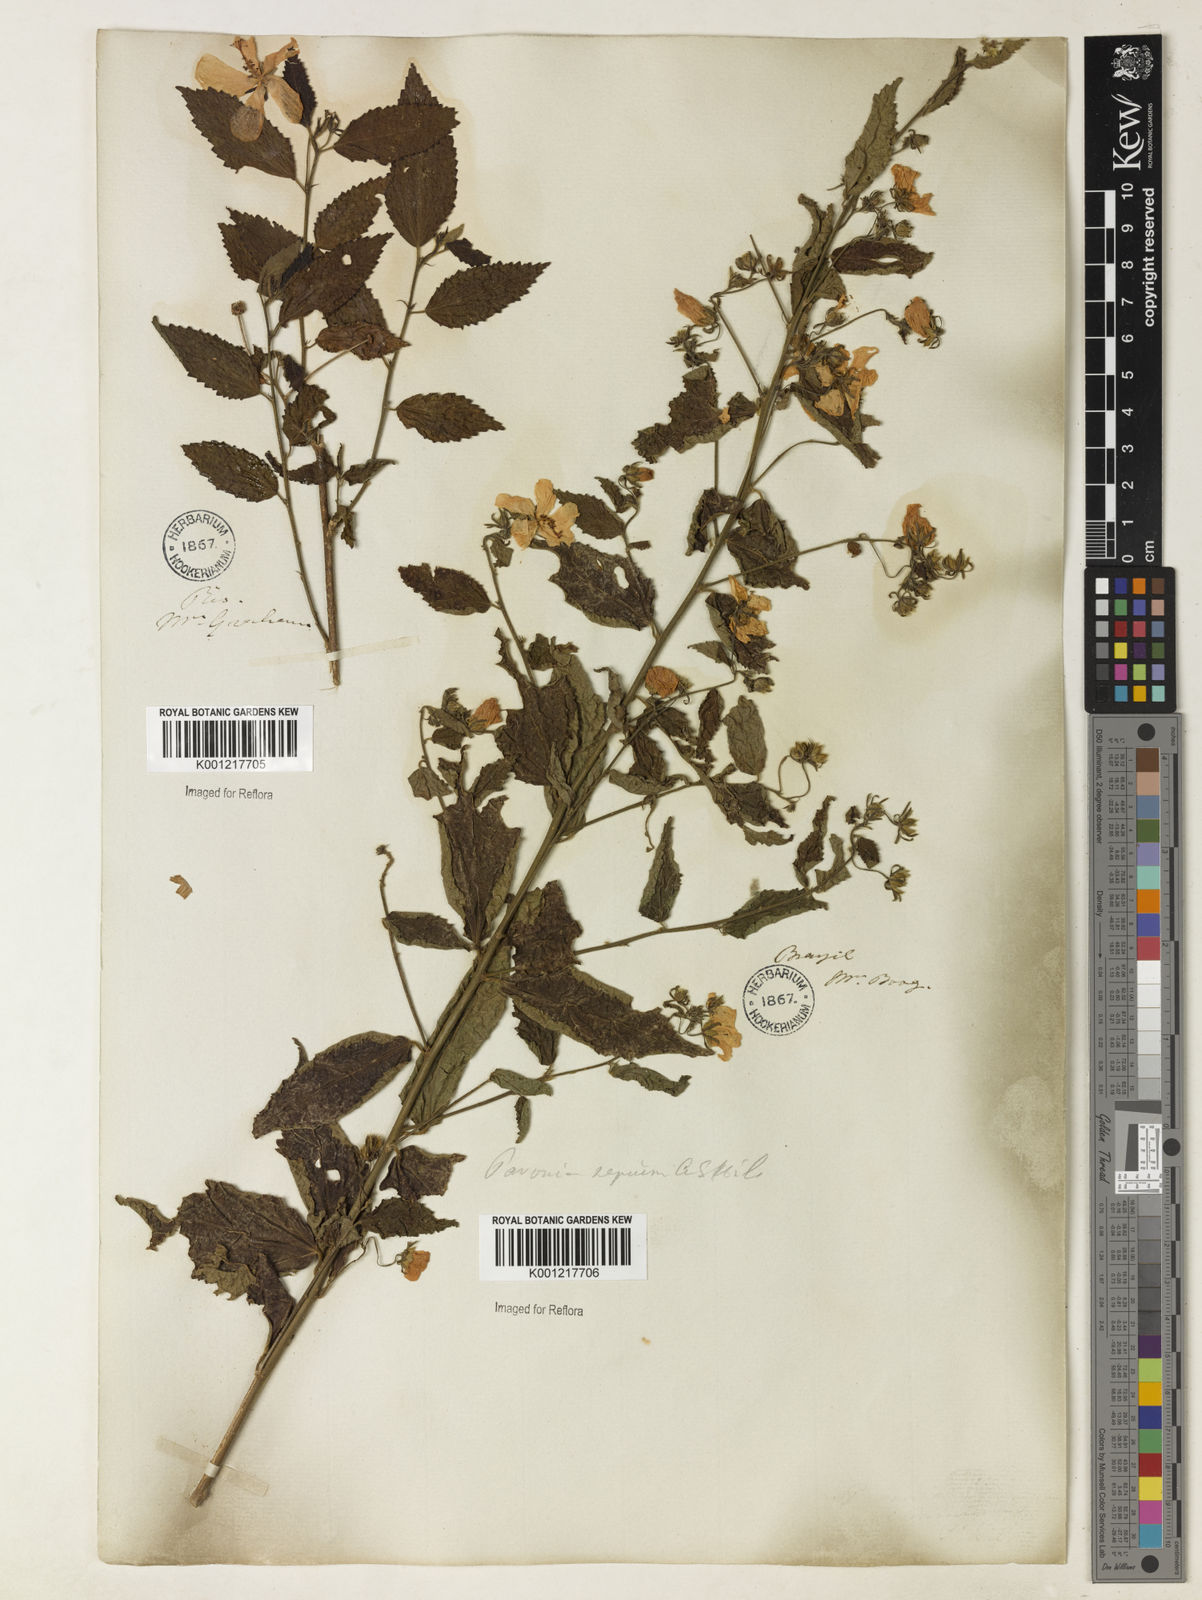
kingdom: Plantae
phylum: Tracheophyta
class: Magnoliopsida
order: Malvales
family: Malvaceae
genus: Pavonia
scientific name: Pavonia sepium
